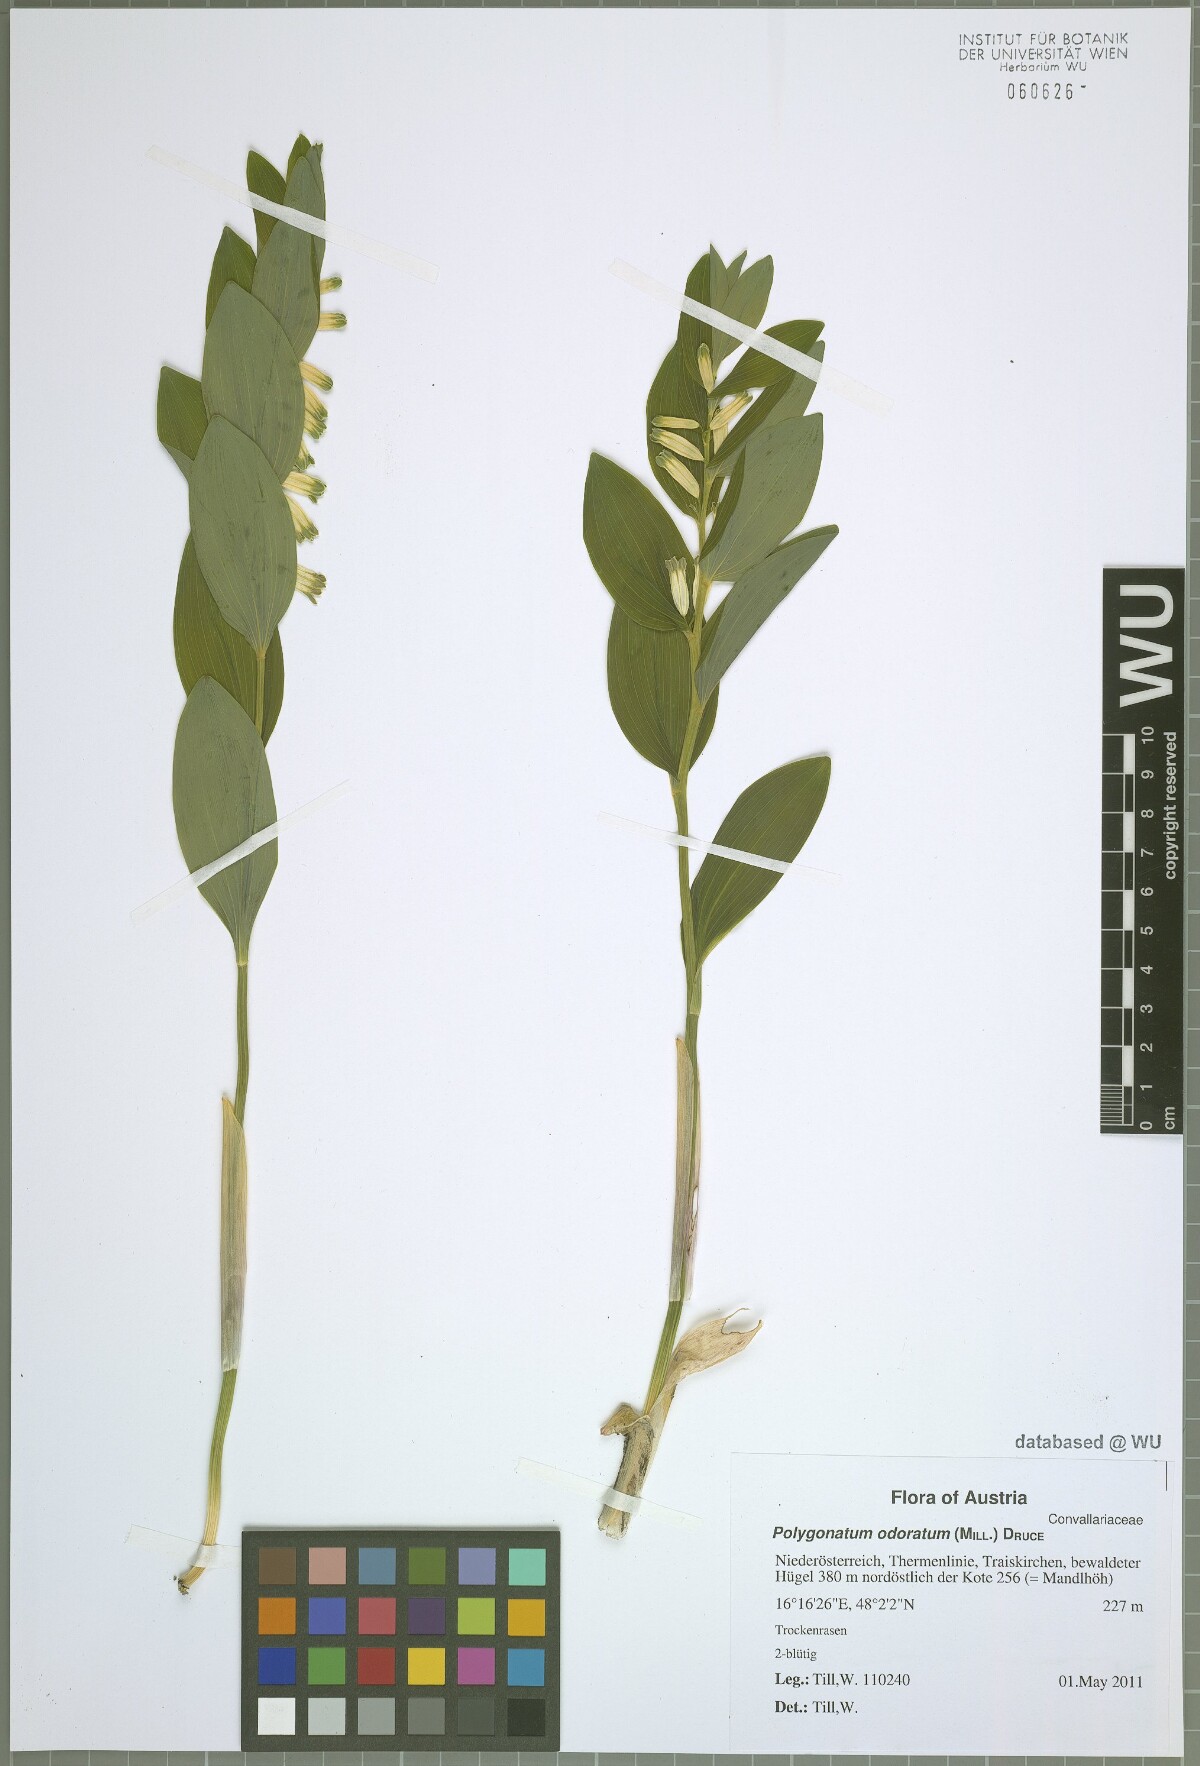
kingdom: Plantae
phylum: Tracheophyta
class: Liliopsida
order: Asparagales
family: Asparagaceae
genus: Polygonatum
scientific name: Polygonatum odoratum
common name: Angular solomon's-seal
